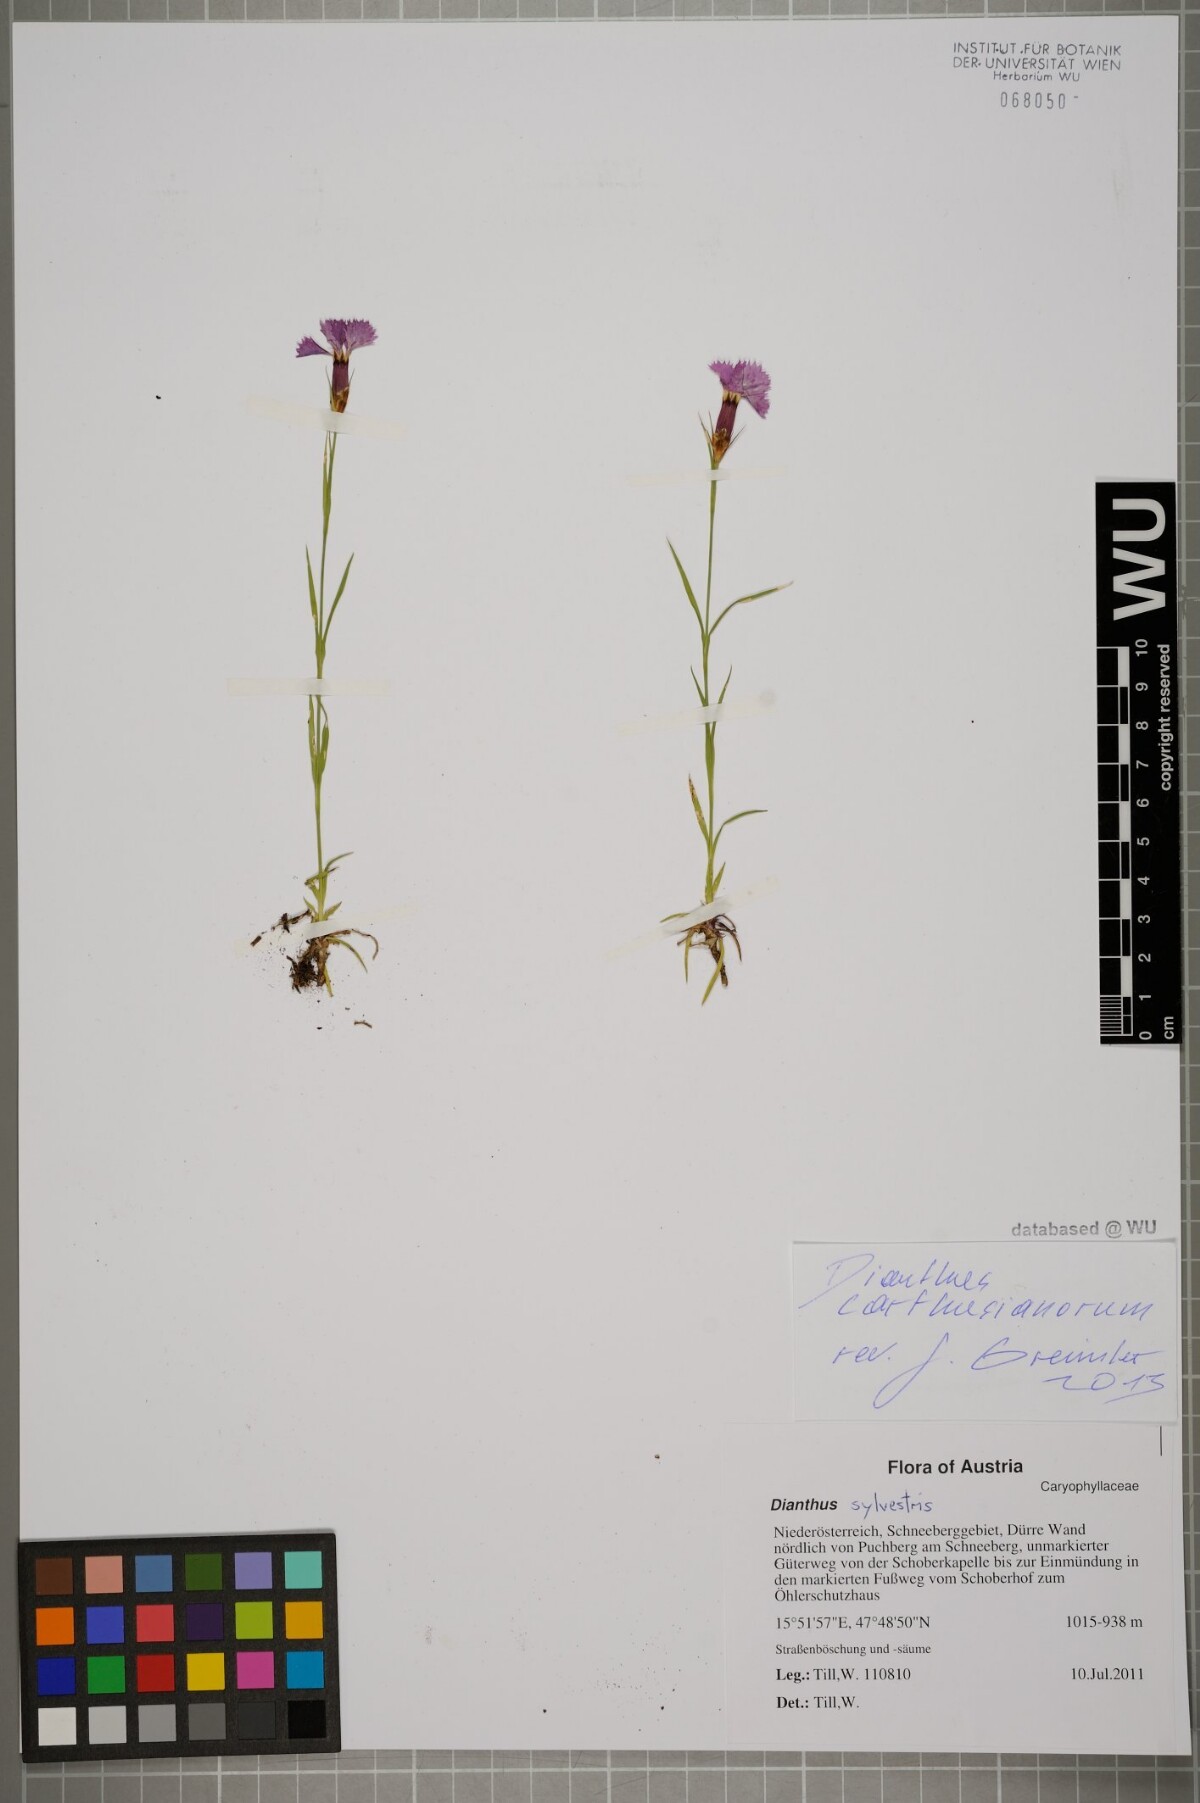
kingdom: Plantae
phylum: Tracheophyta
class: Magnoliopsida
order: Caryophyllales
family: Caryophyllaceae
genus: Dianthus
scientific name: Dianthus carthusianorum
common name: Carthusian pink
